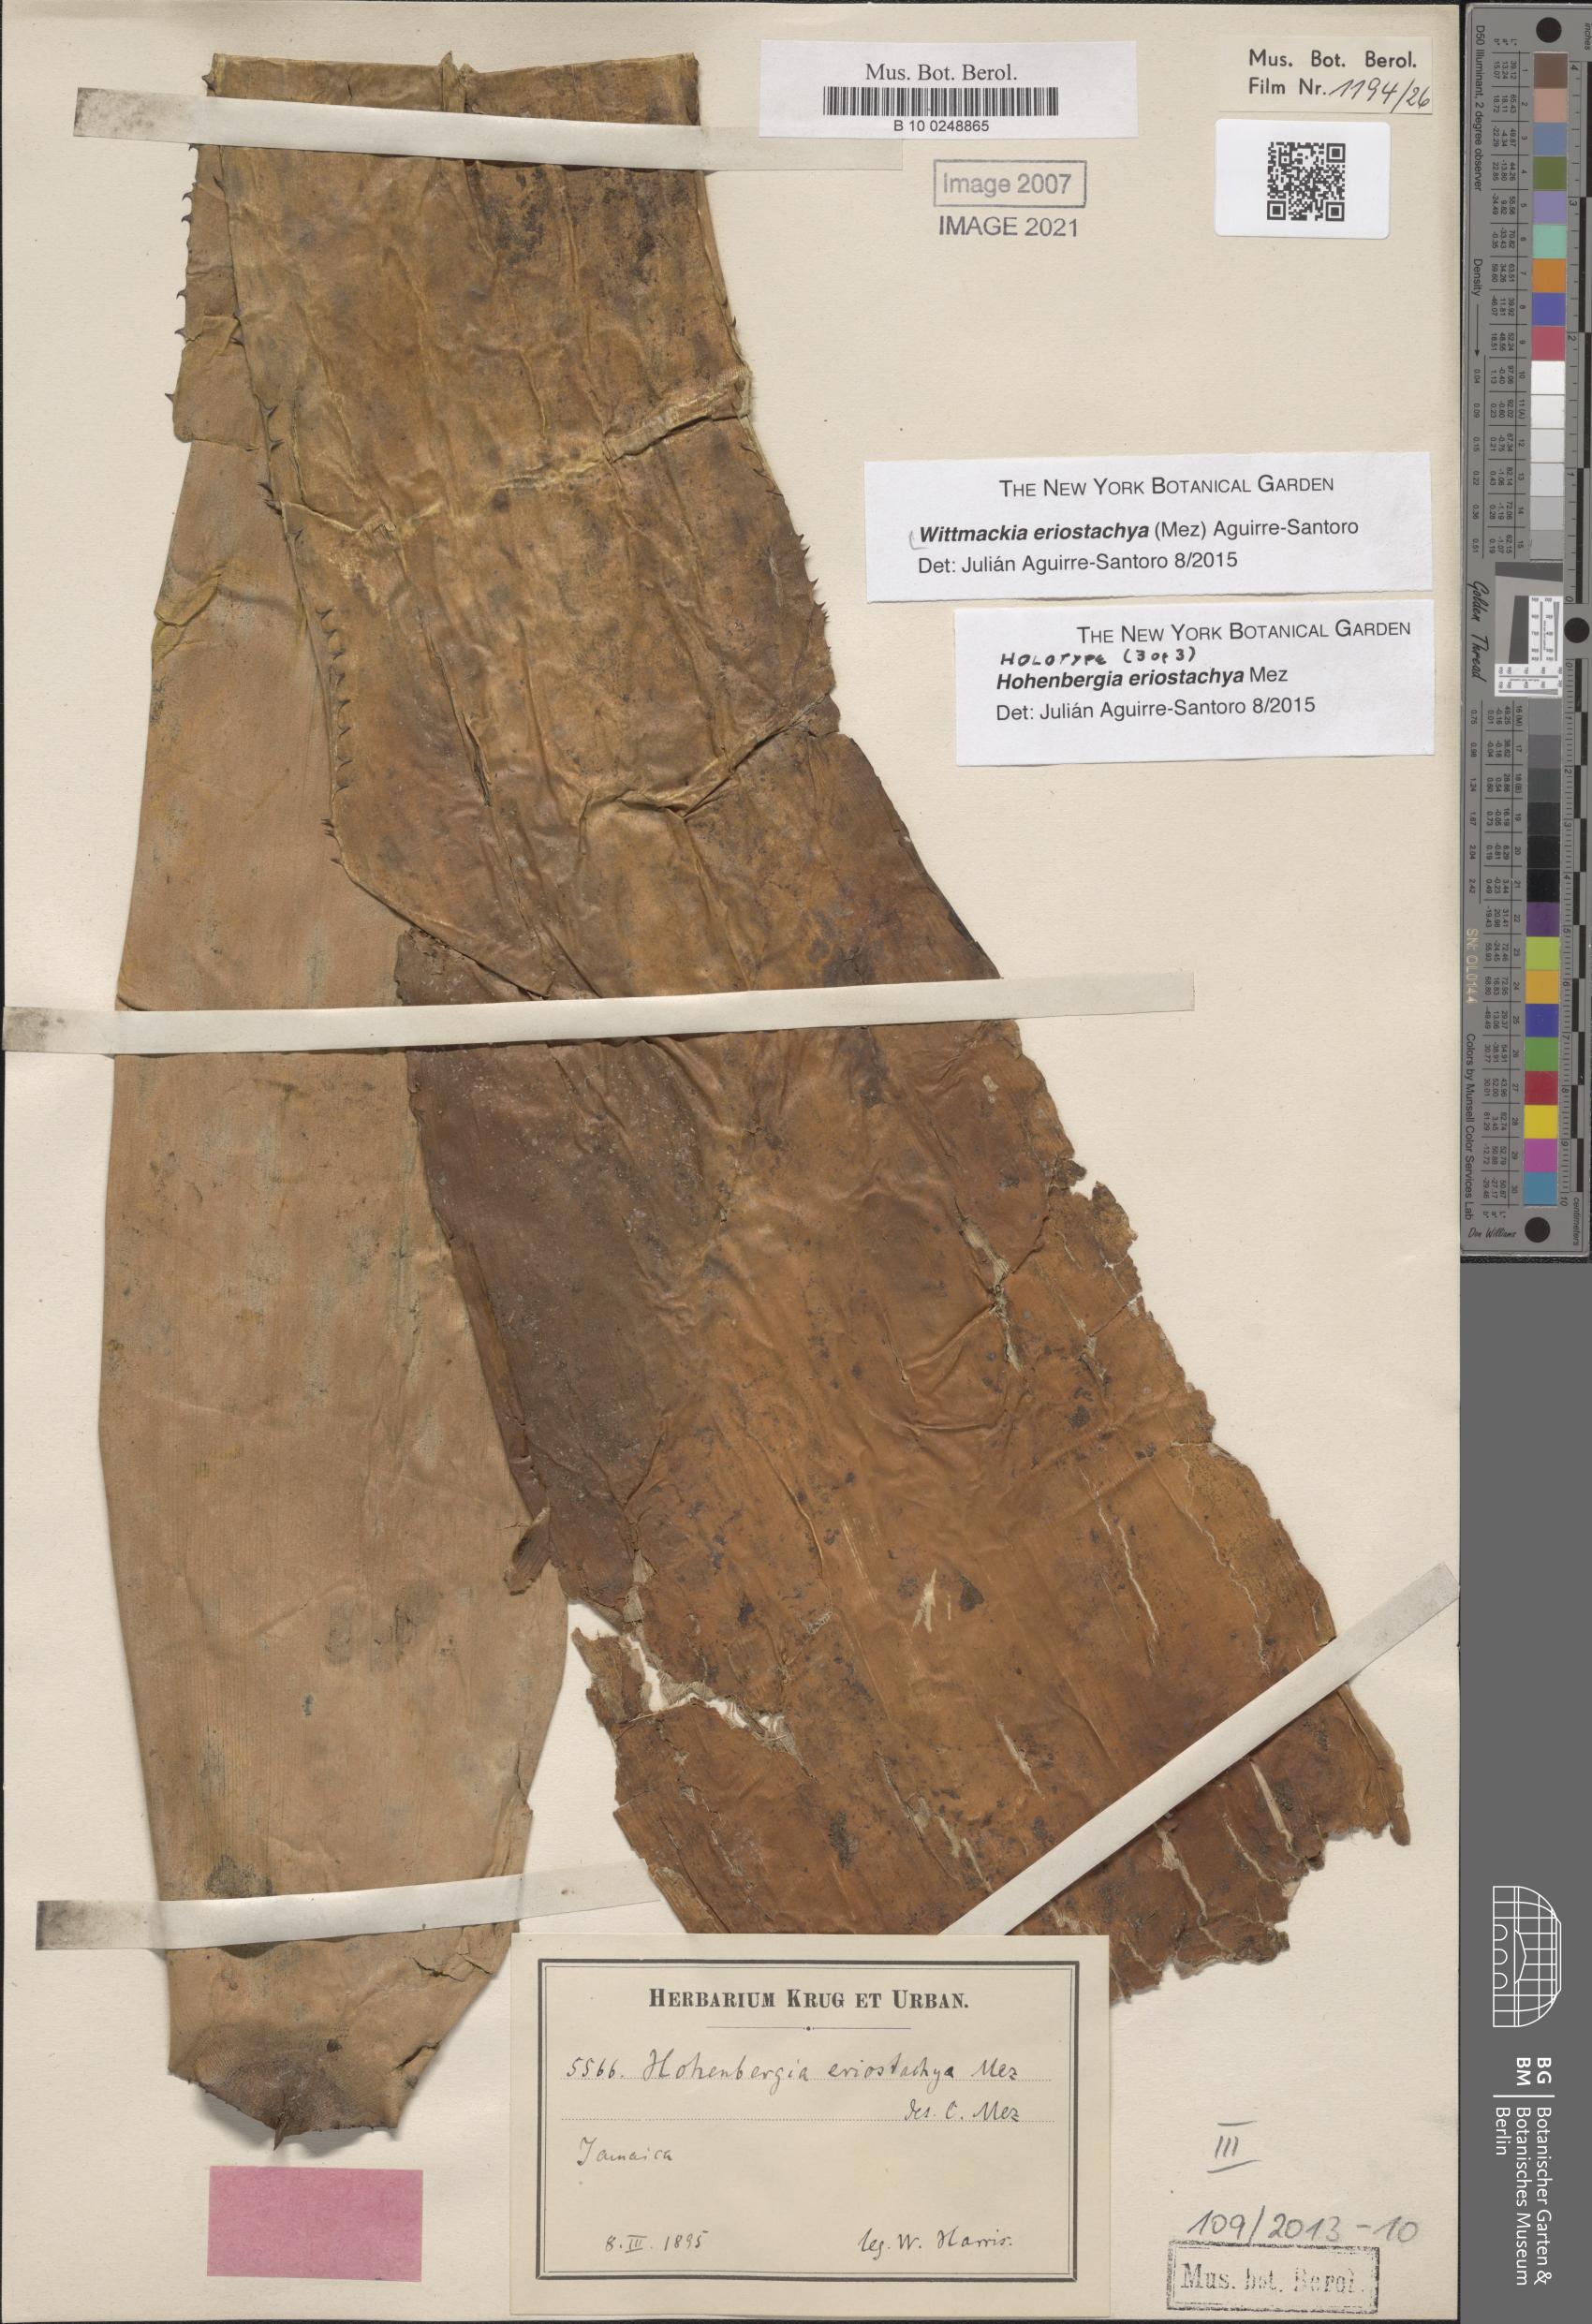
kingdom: Plantae
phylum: Tracheophyta
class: Liliopsida
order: Poales
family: Bromeliaceae
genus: Wittmackia
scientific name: Wittmackia eriostachya
